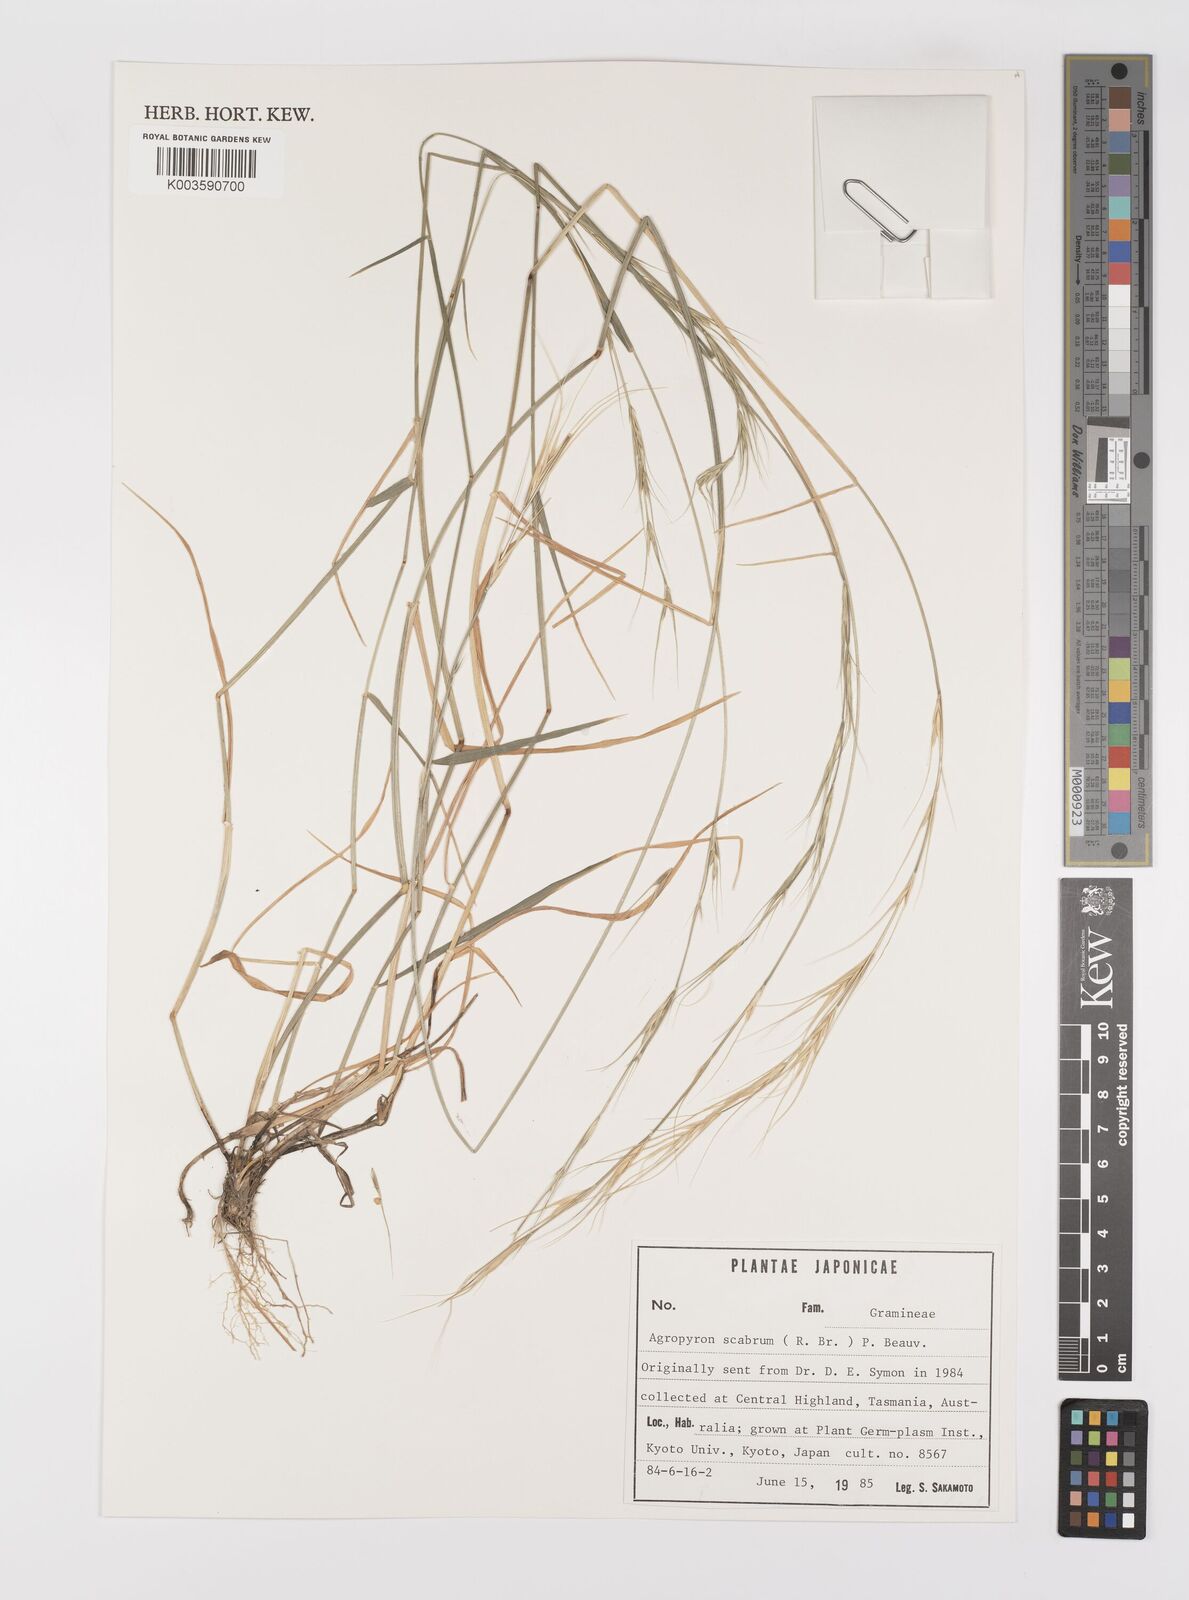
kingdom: Plantae
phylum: Tracheophyta
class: Liliopsida
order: Poales
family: Poaceae
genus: Elymus
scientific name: Elymus
